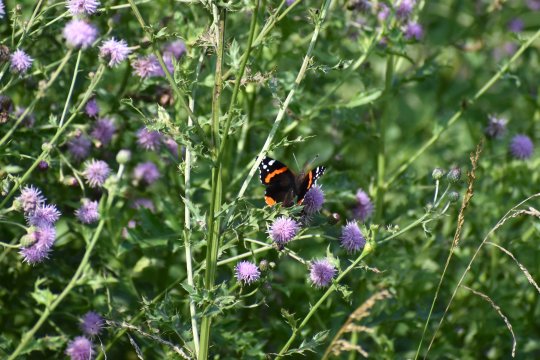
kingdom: Animalia
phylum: Arthropoda
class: Insecta
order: Lepidoptera
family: Nymphalidae
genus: Vanessa
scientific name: Vanessa atalanta
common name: Red Admiral
